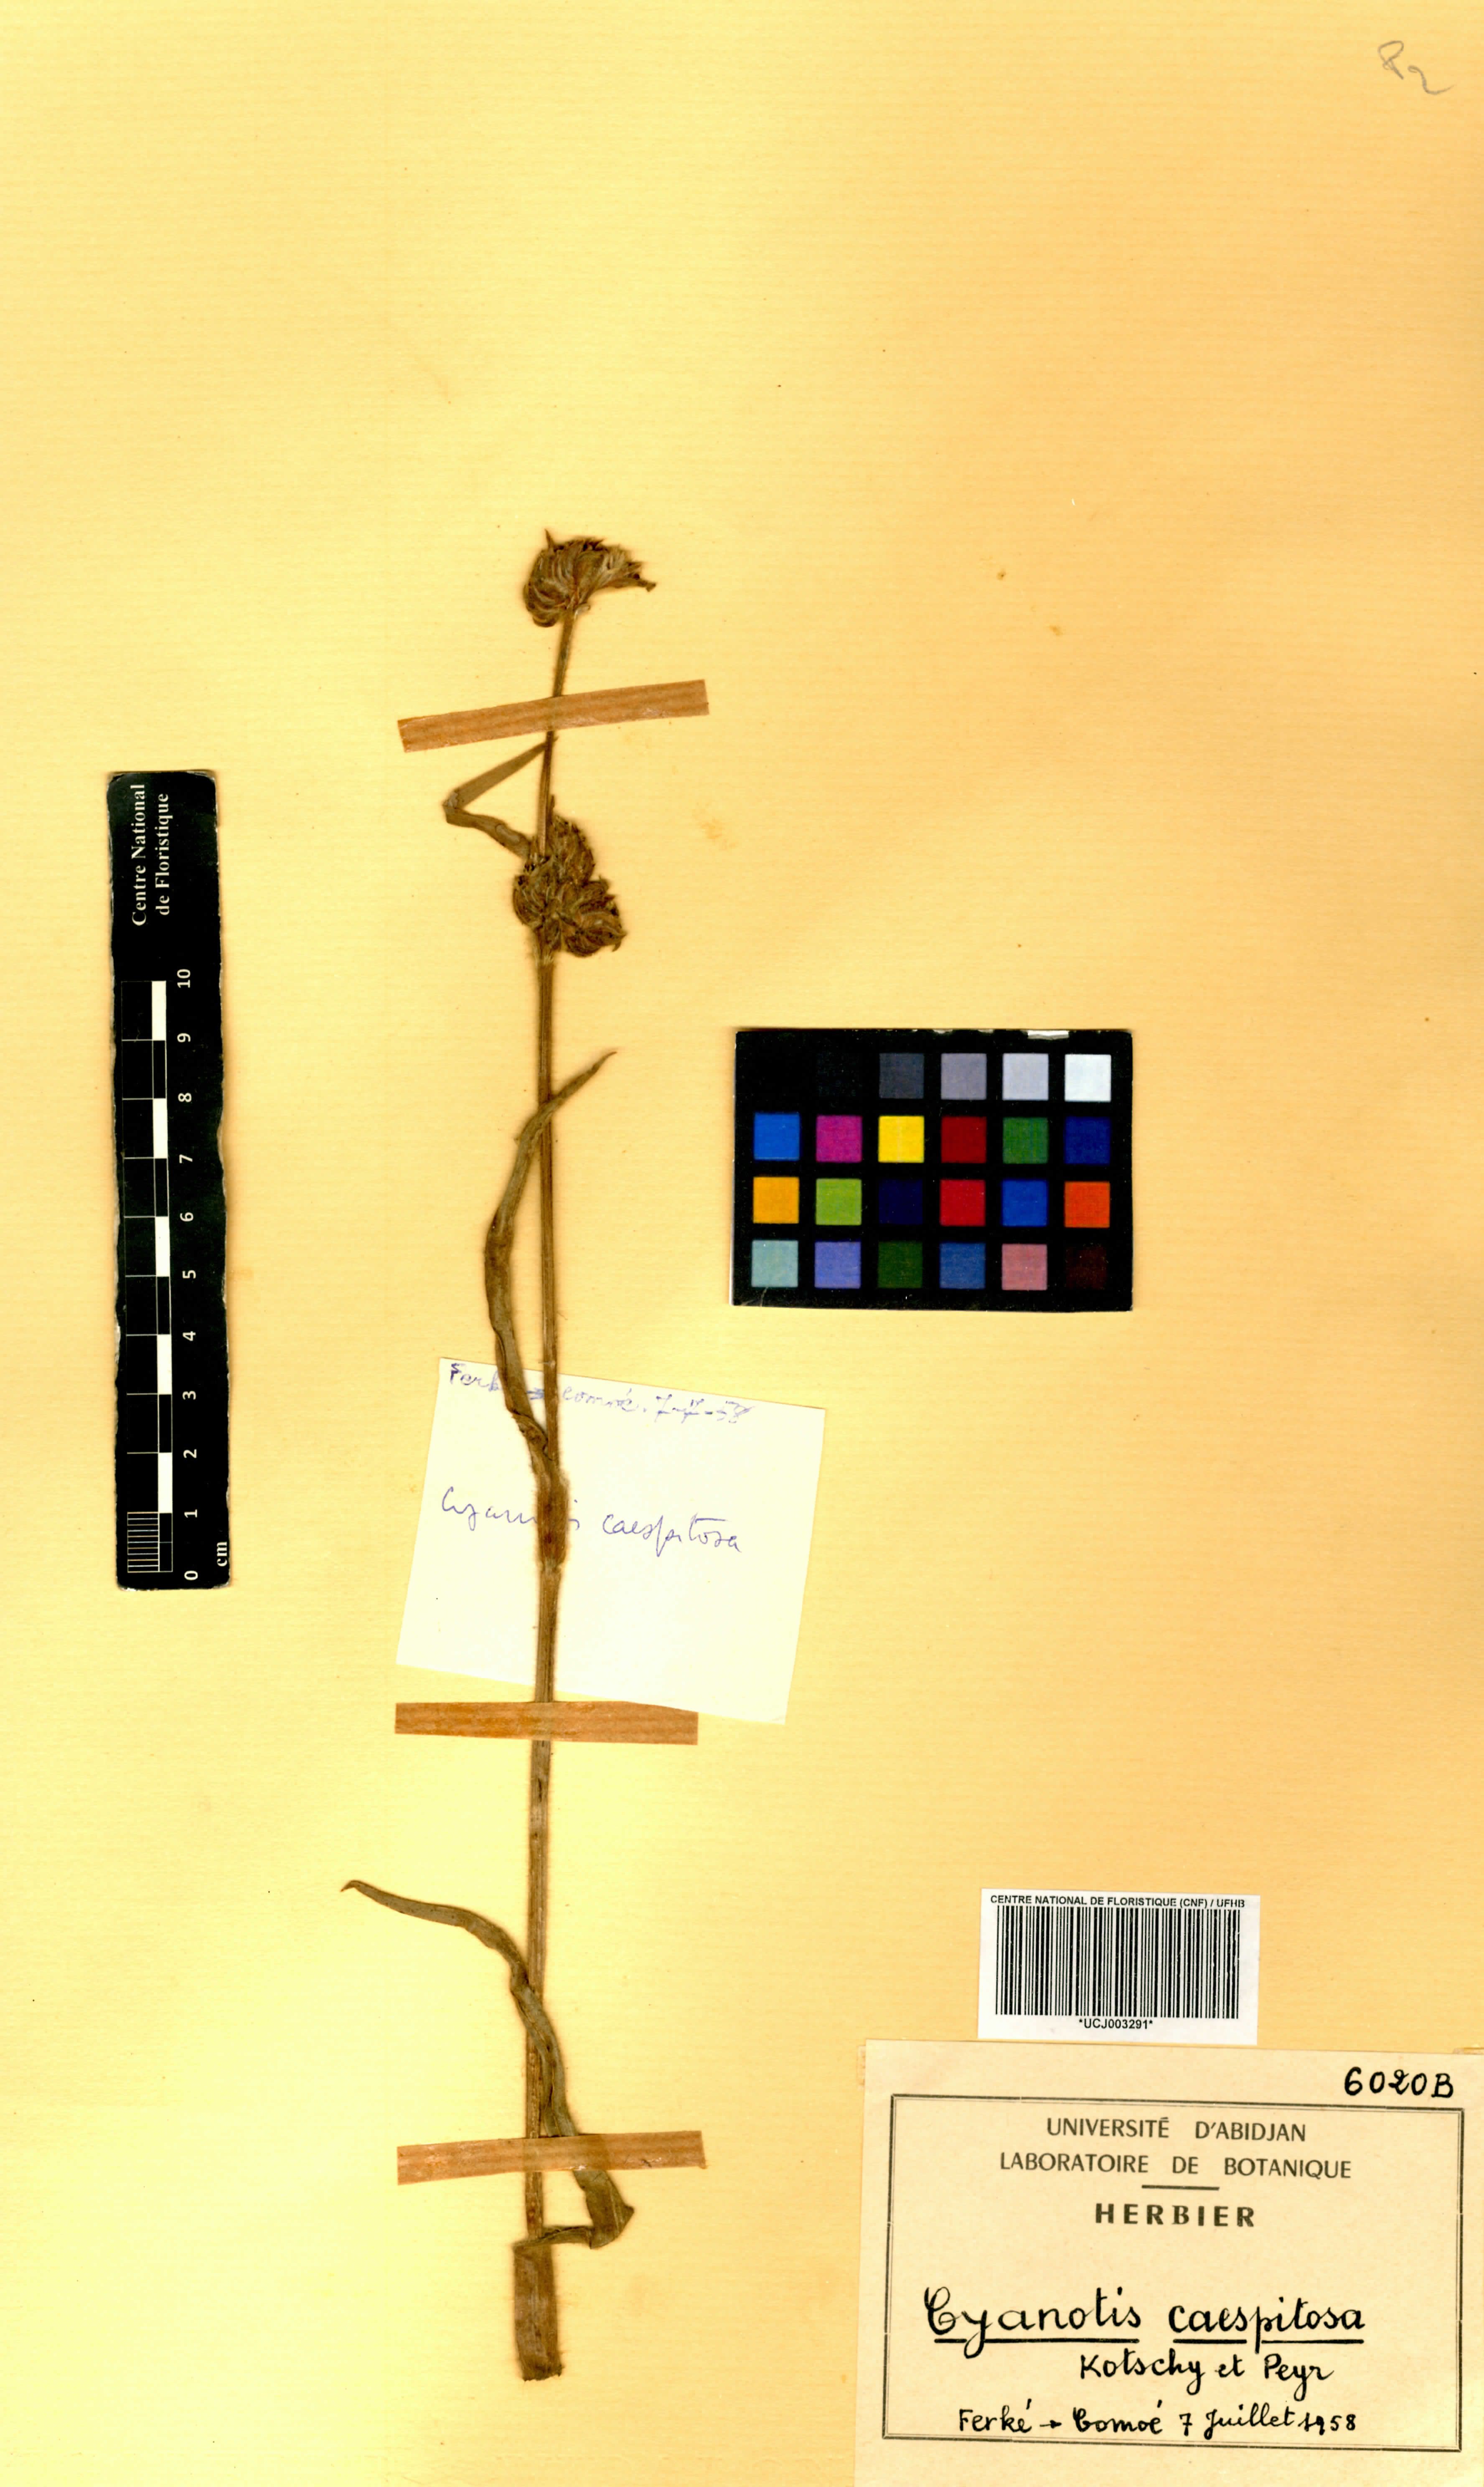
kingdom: Plantae
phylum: Tracheophyta
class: Liliopsida
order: Commelinales
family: Commelinaceae
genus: Cyanotis
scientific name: Cyanotis caespitosa
